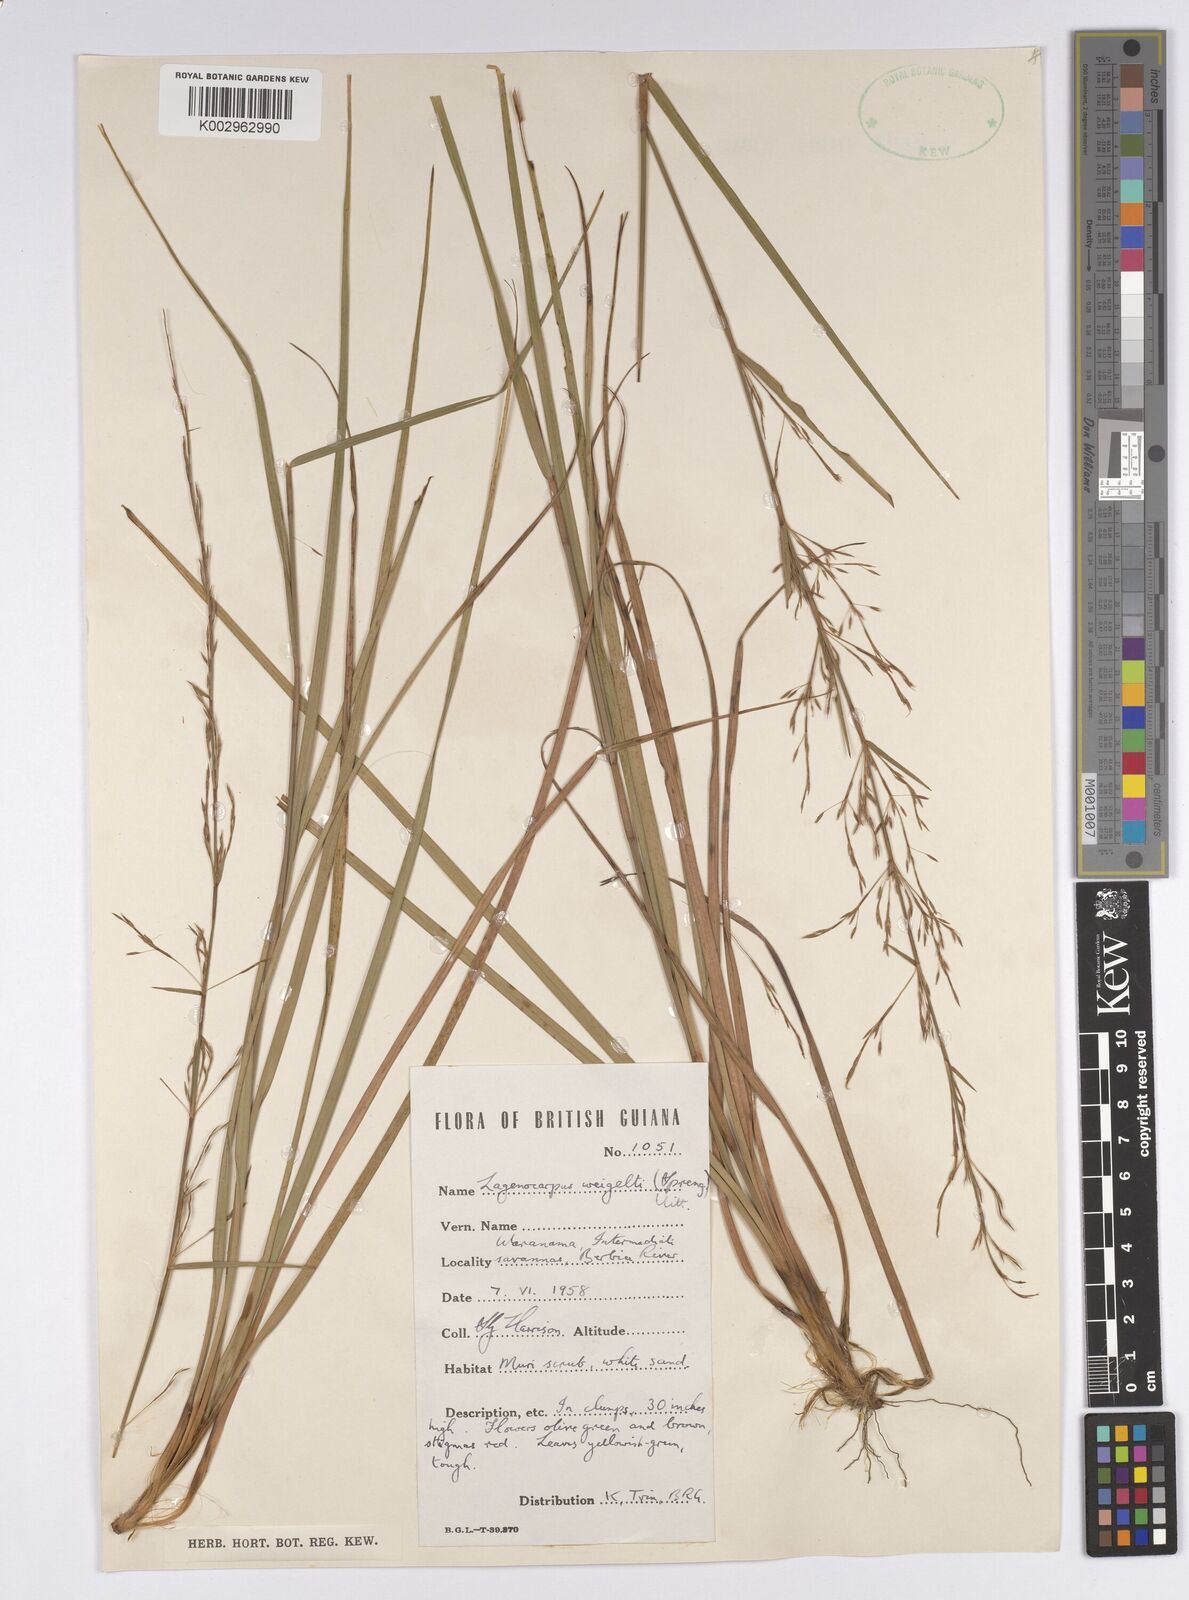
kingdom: Plantae
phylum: Tracheophyta
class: Liliopsida
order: Poales
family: Cyperaceae
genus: Cryptangium
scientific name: Cryptangium verticillatum
